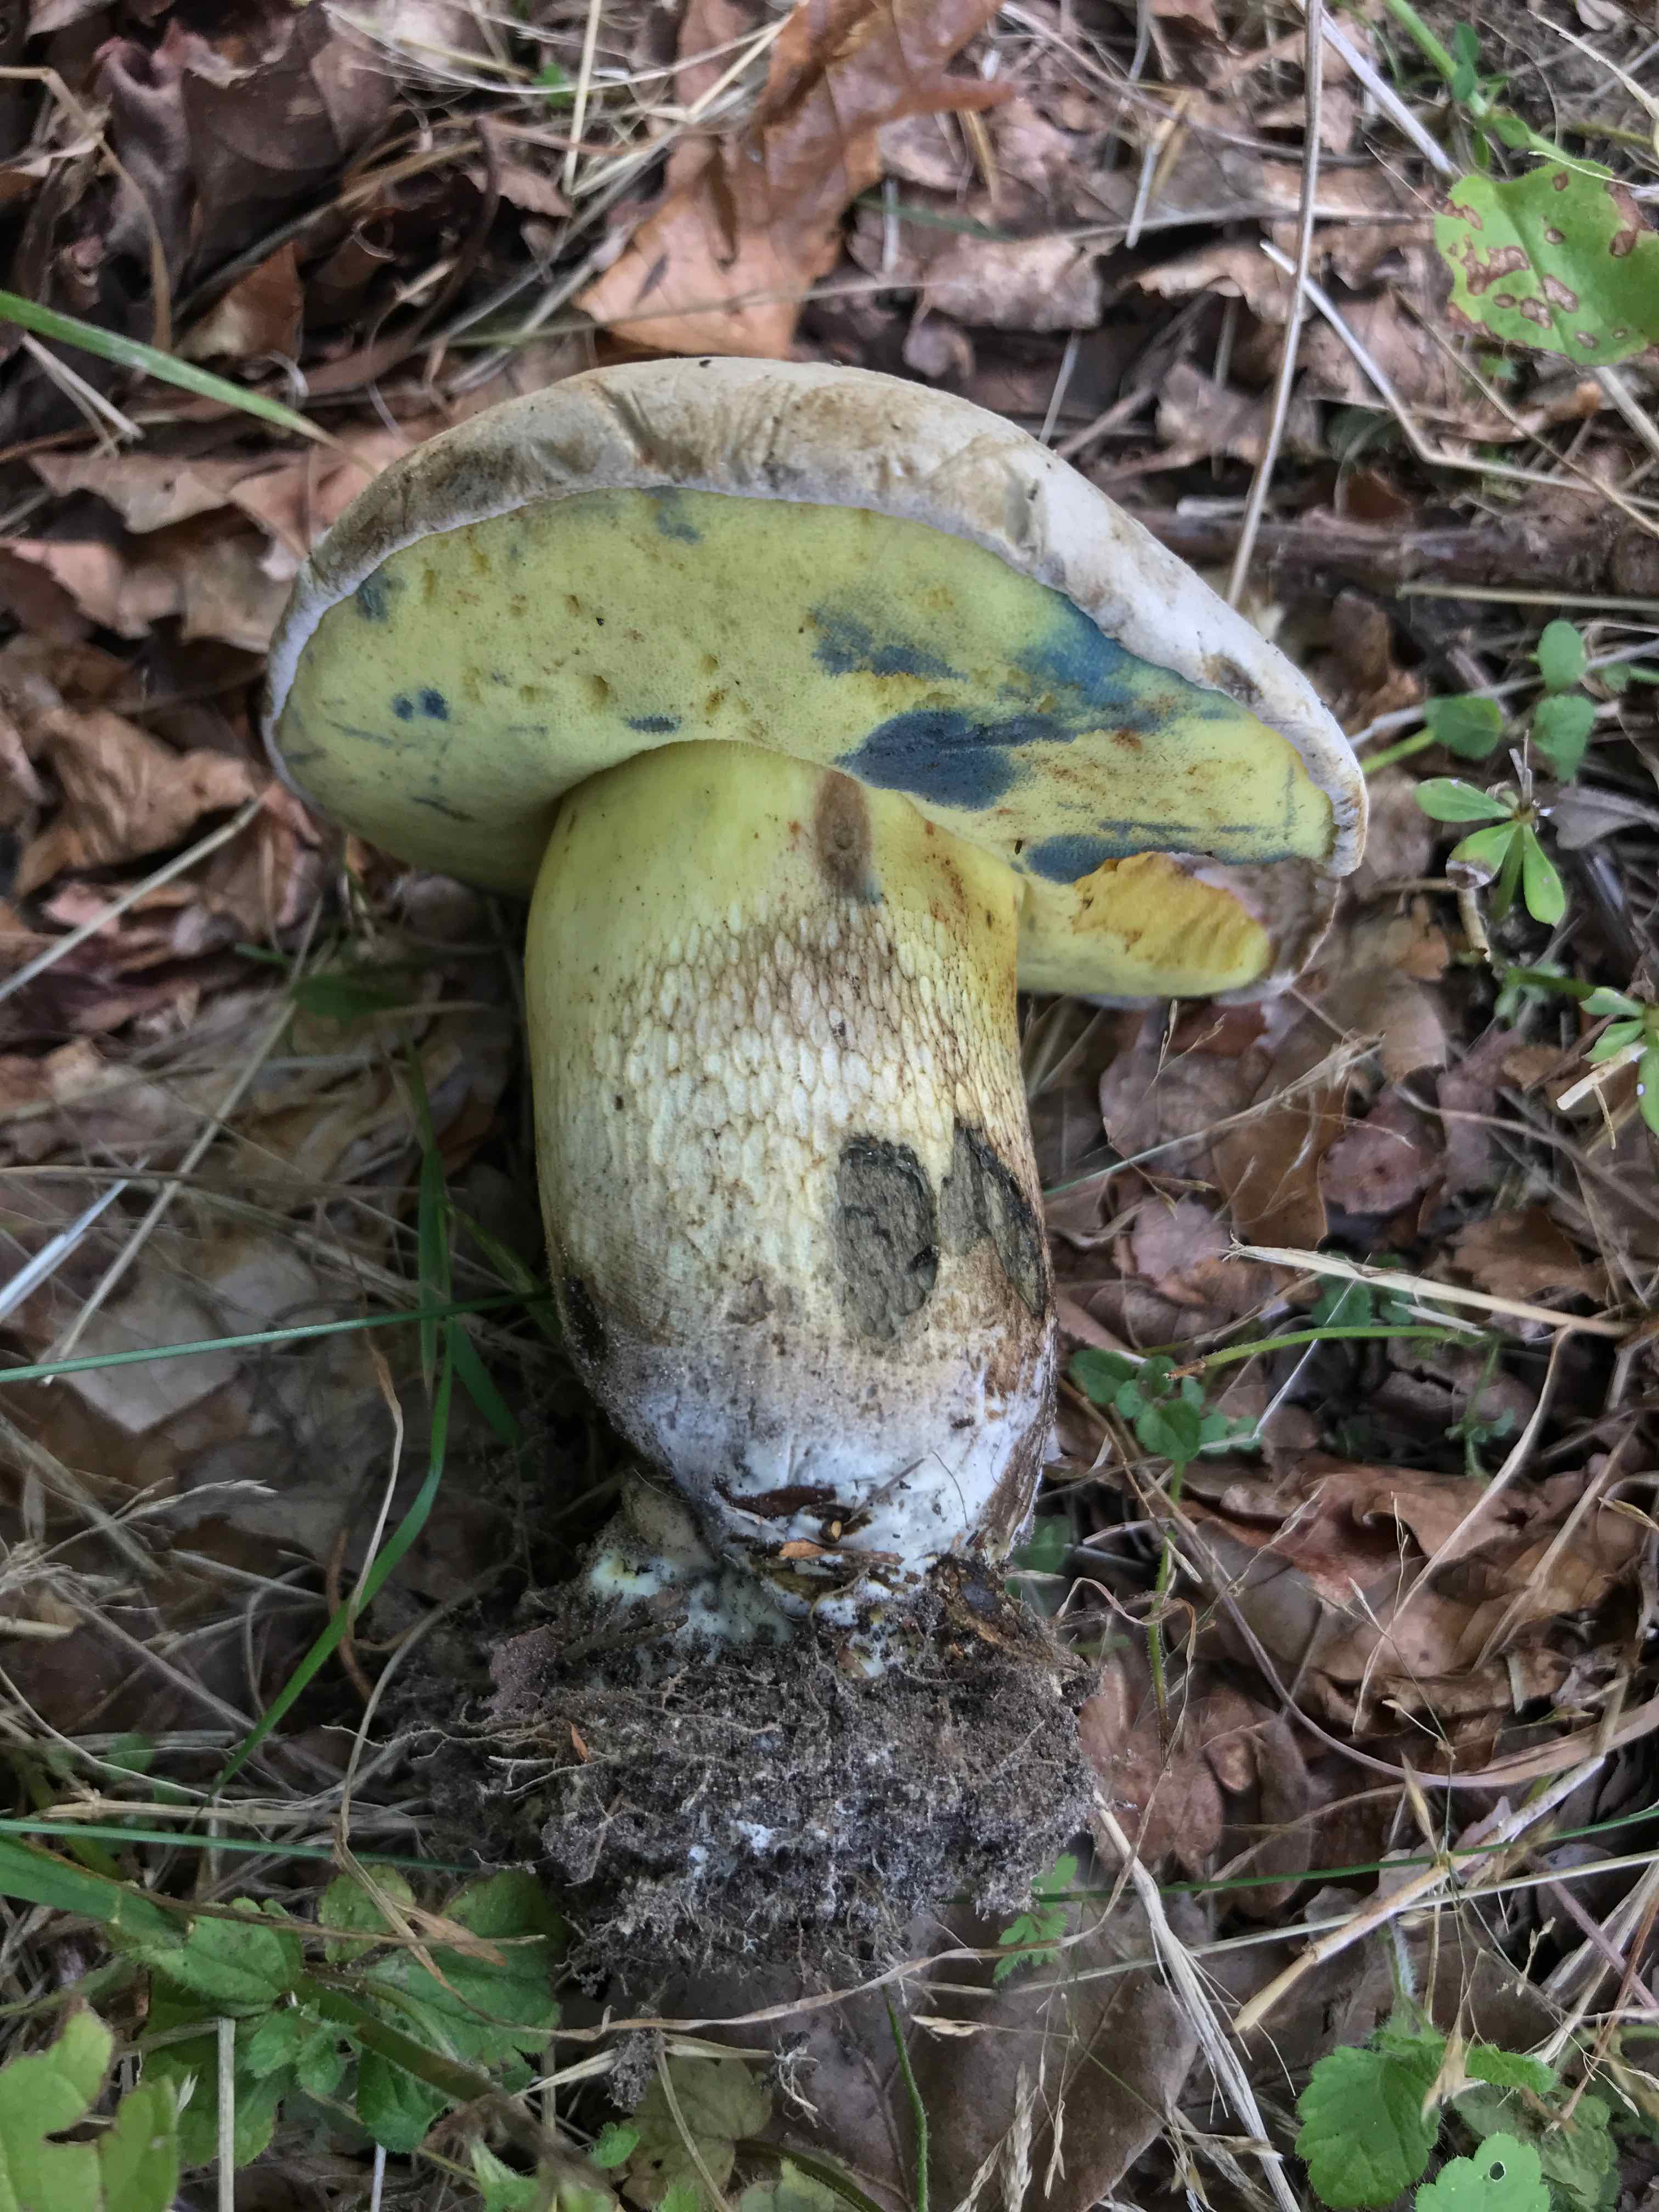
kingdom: Fungi
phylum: Basidiomycota
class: Agaricomycetes
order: Boletales
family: Boletaceae
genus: Caloboletus
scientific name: Caloboletus radicans
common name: rod-rørhat
